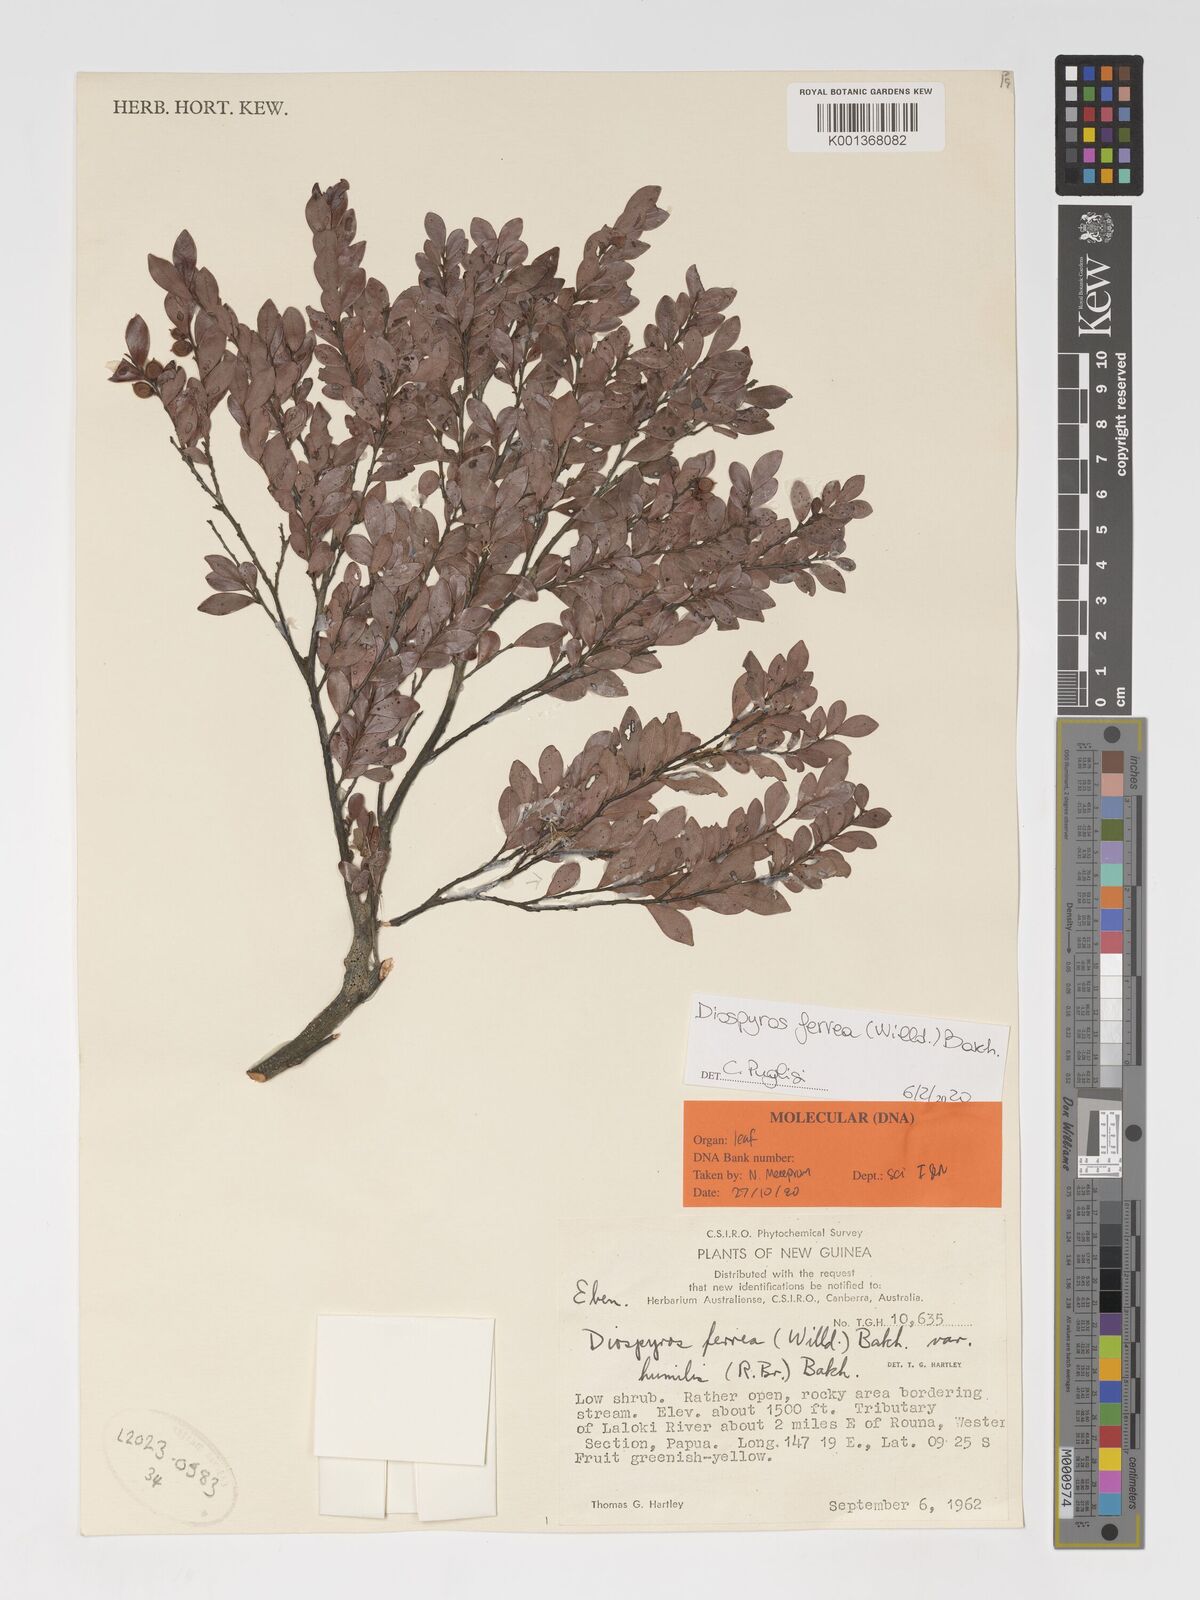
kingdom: Plantae
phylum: Tracheophyta
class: Magnoliopsida
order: Ericales
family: Ebenaceae
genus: Diospyros
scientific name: Diospyros ferrea
